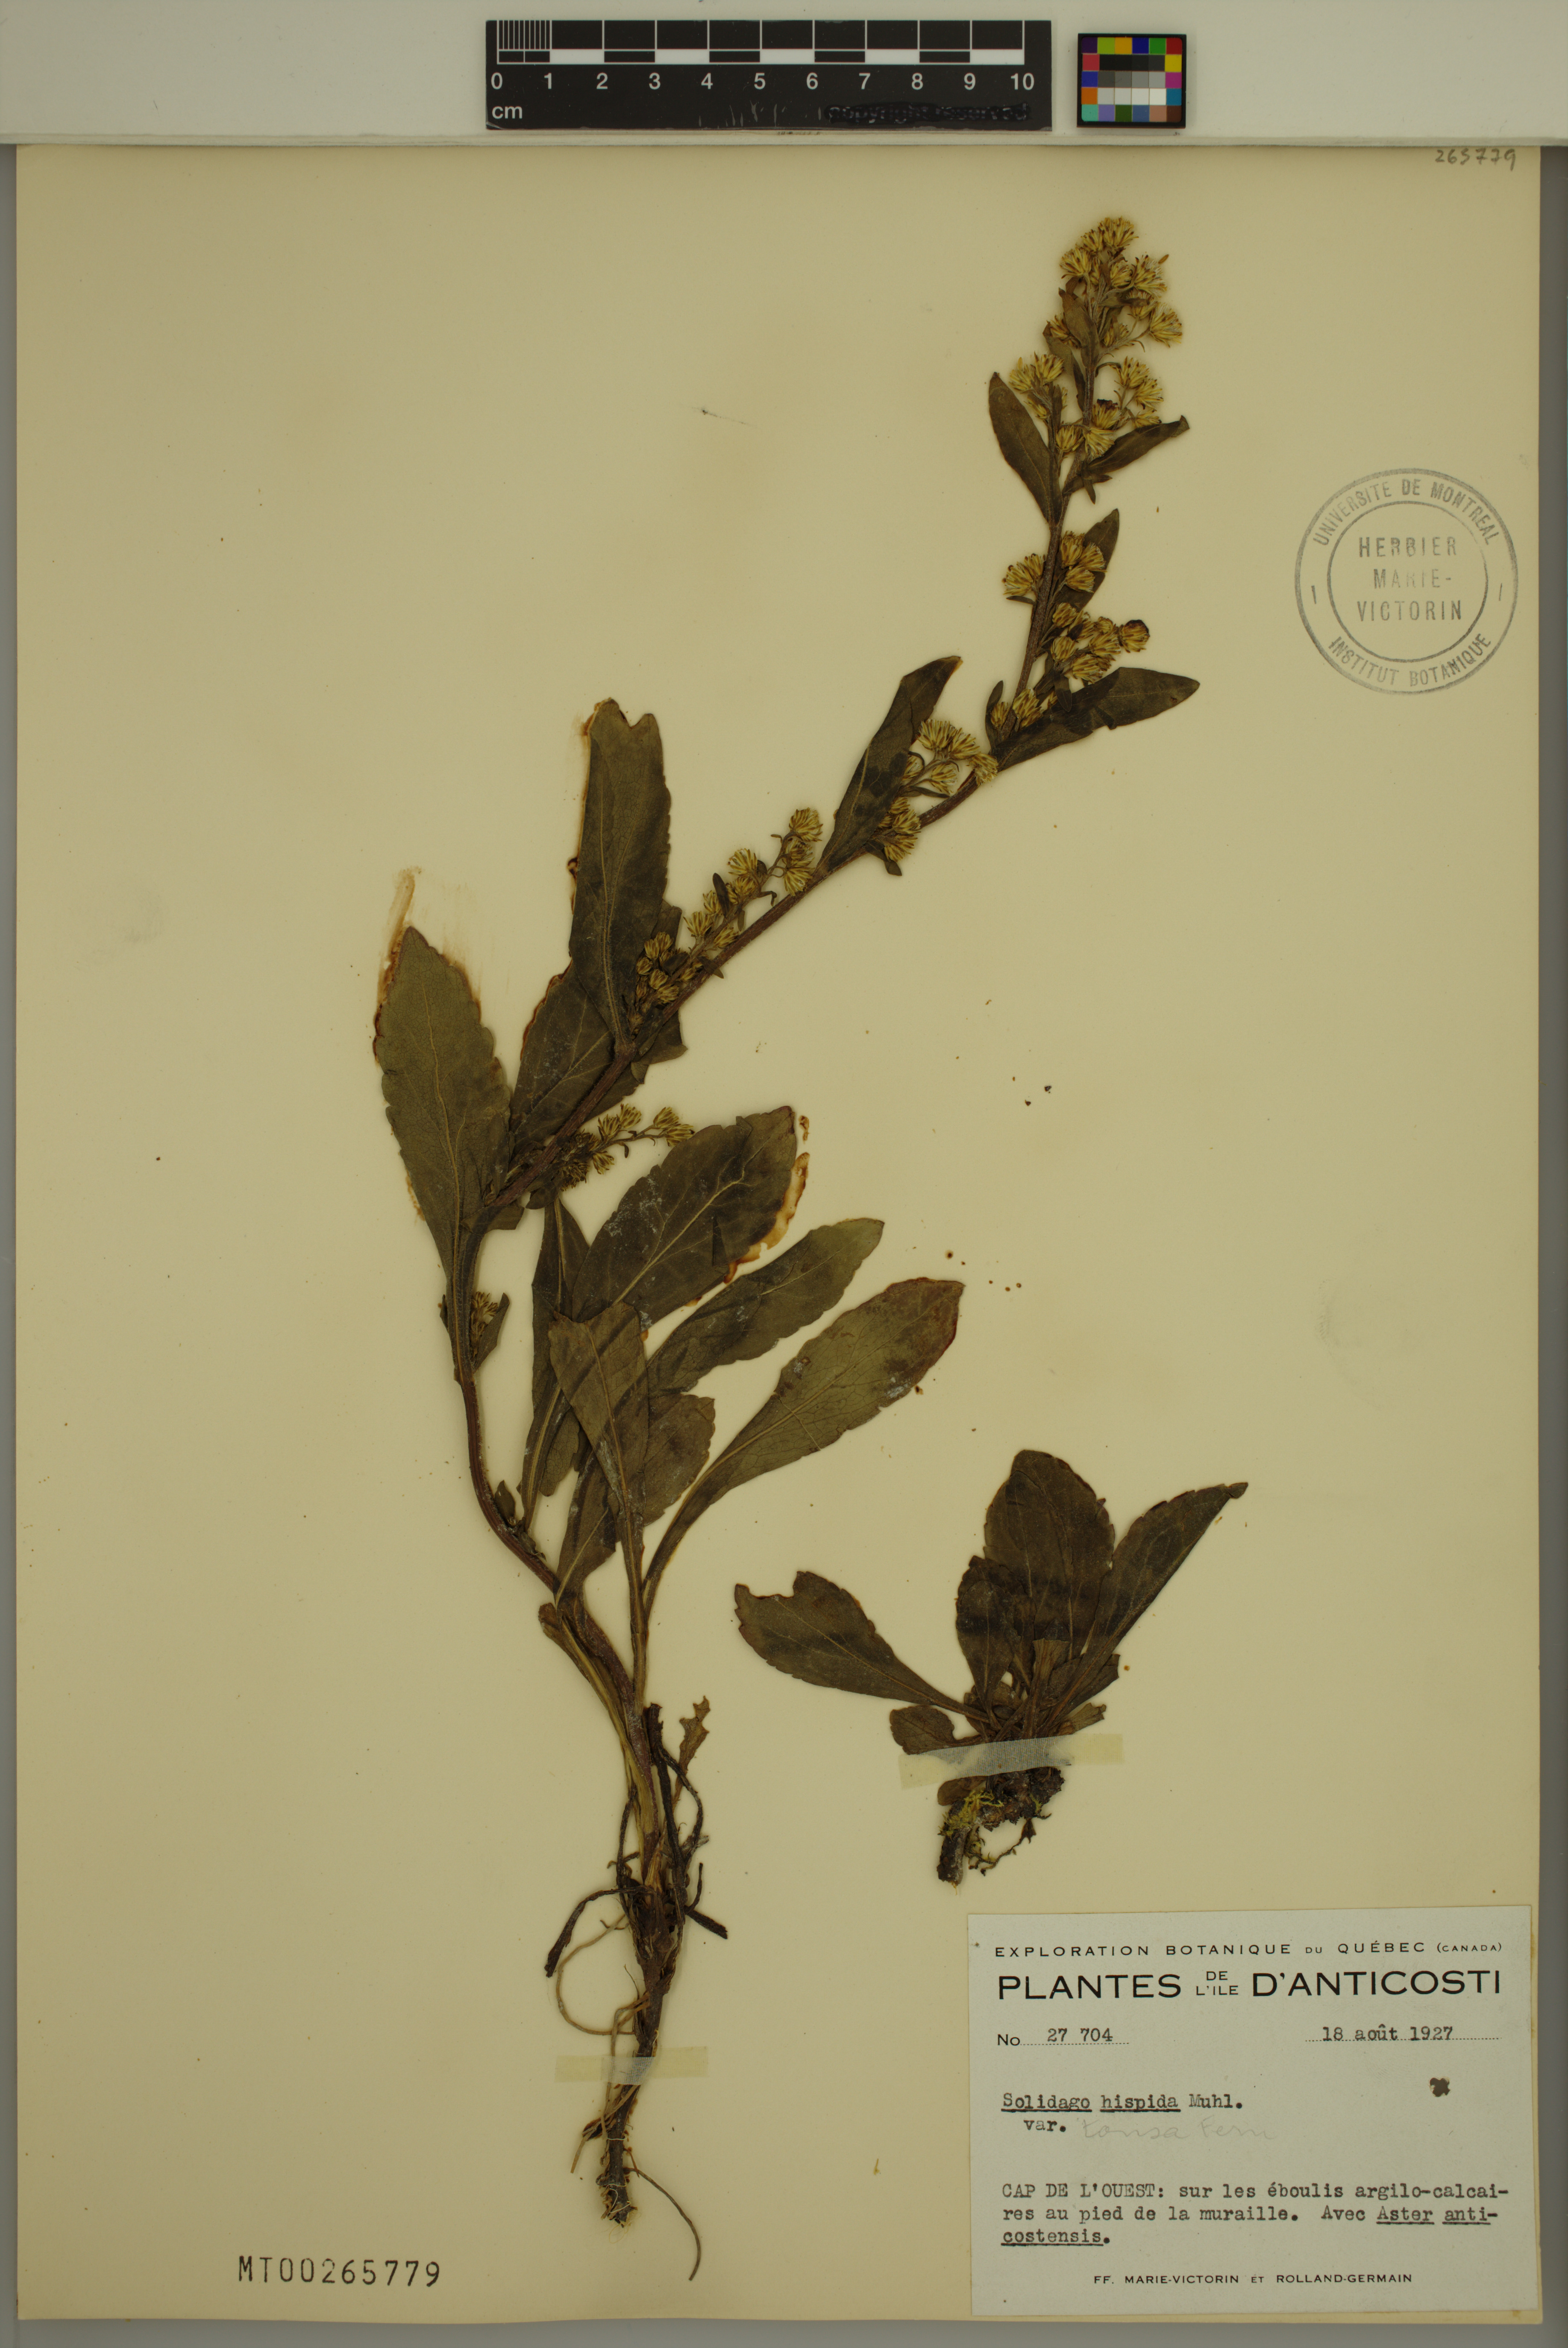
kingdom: Plantae
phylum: Tracheophyta
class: Magnoliopsida
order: Asterales
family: Asteraceae
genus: Solidago
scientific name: Solidago hispida
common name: Hairy goldenrod
